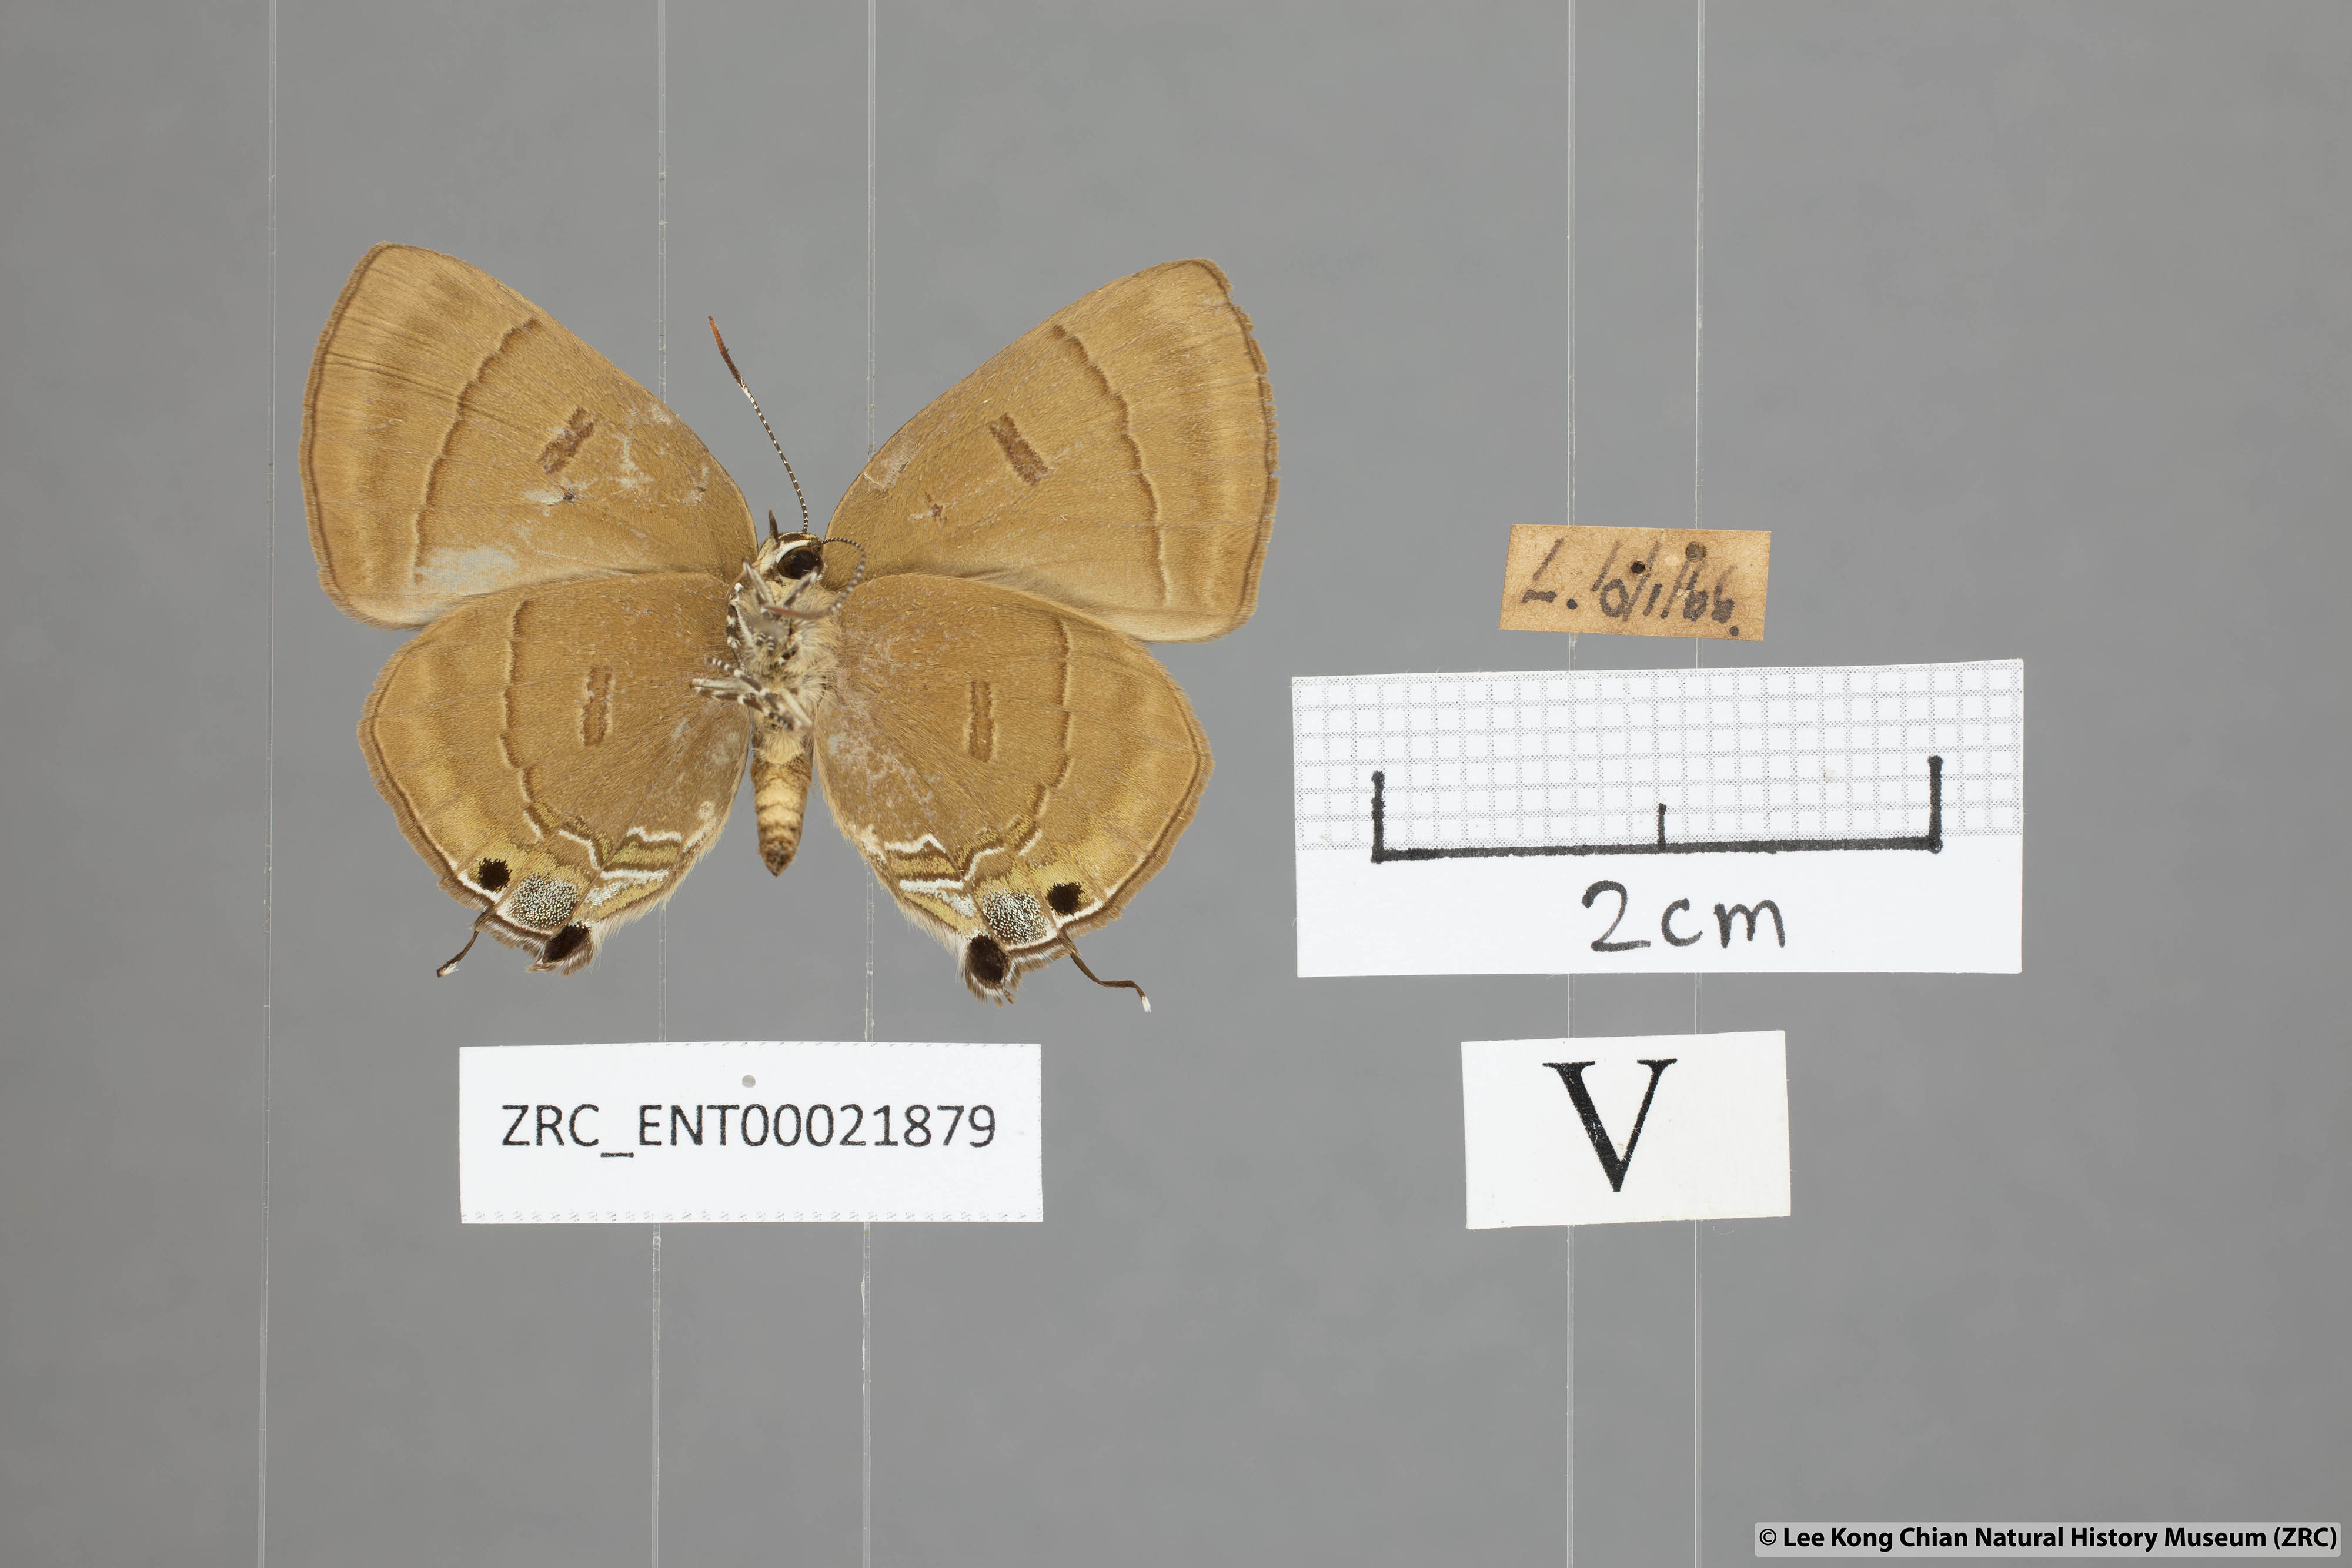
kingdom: Animalia
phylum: Arthropoda
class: Insecta
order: Lepidoptera
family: Lycaenidae
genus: Rapala
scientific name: Rapala pheretima
